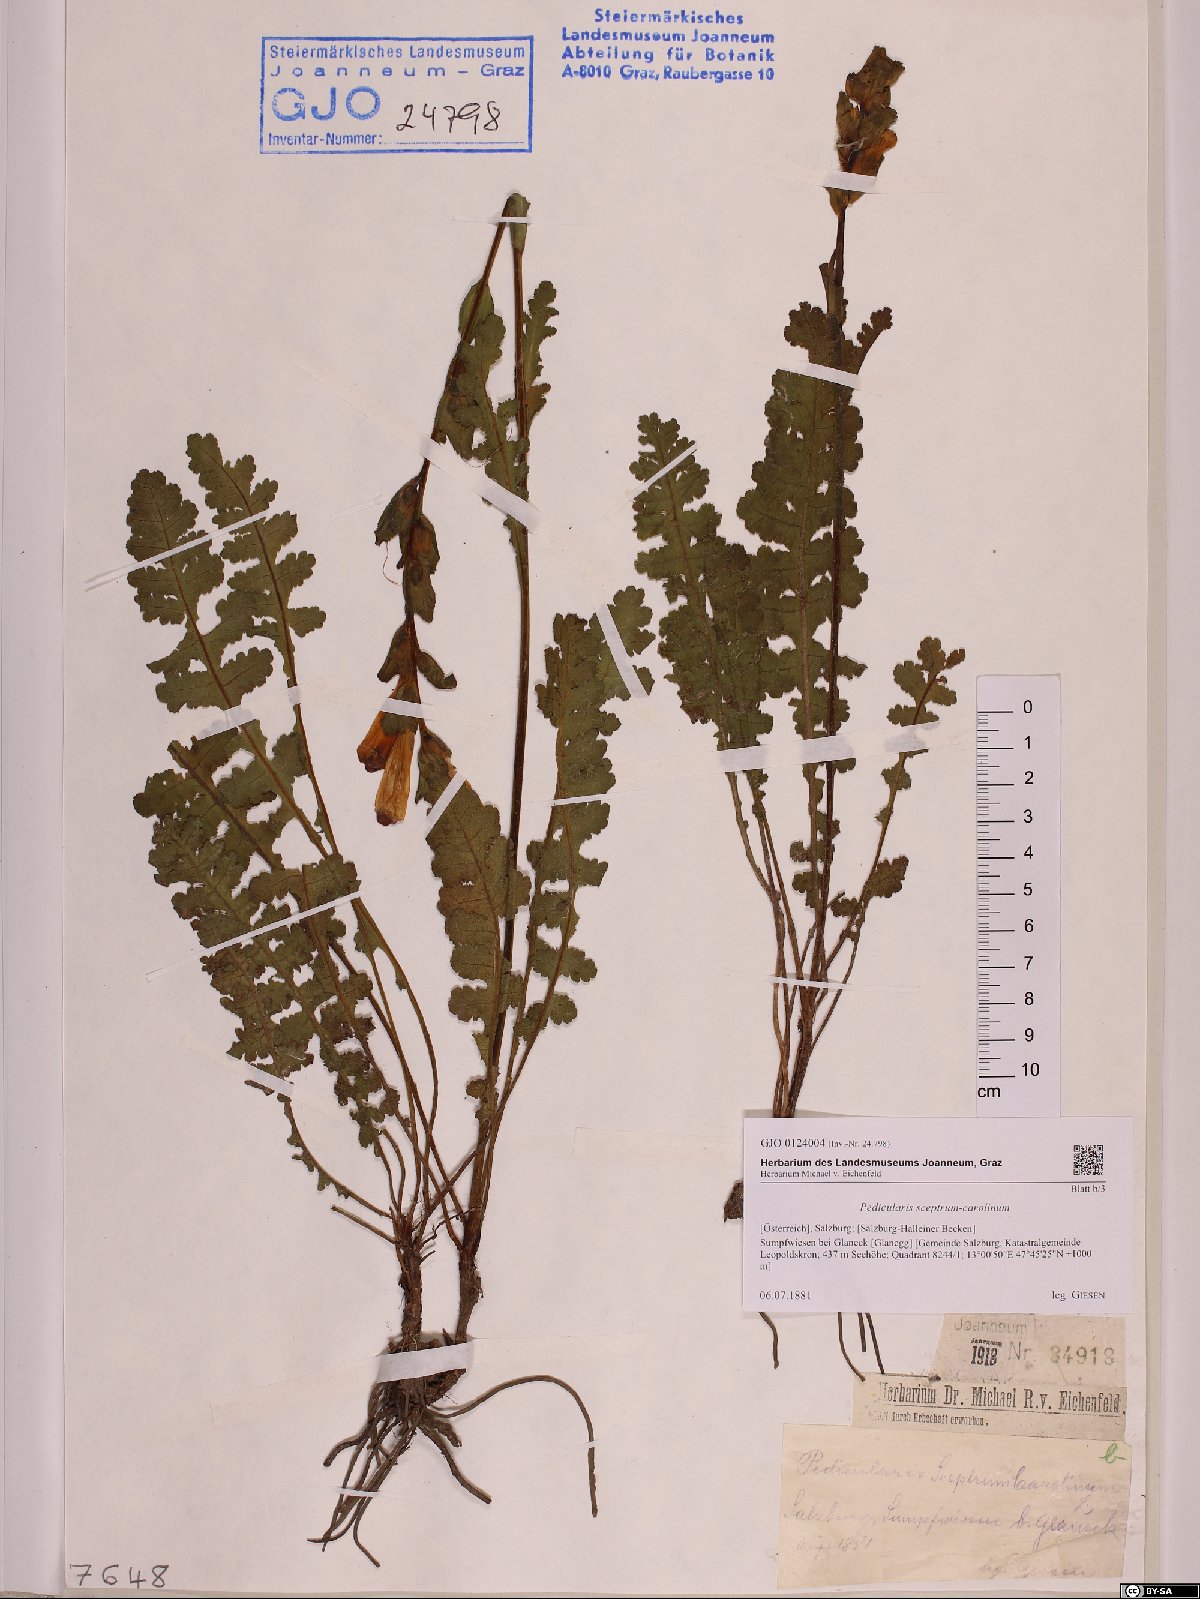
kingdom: Plantae
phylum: Tracheophyta
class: Magnoliopsida
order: Lamiales
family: Orobanchaceae
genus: Pedicularis
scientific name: Pedicularis sceptrum-carolinum
